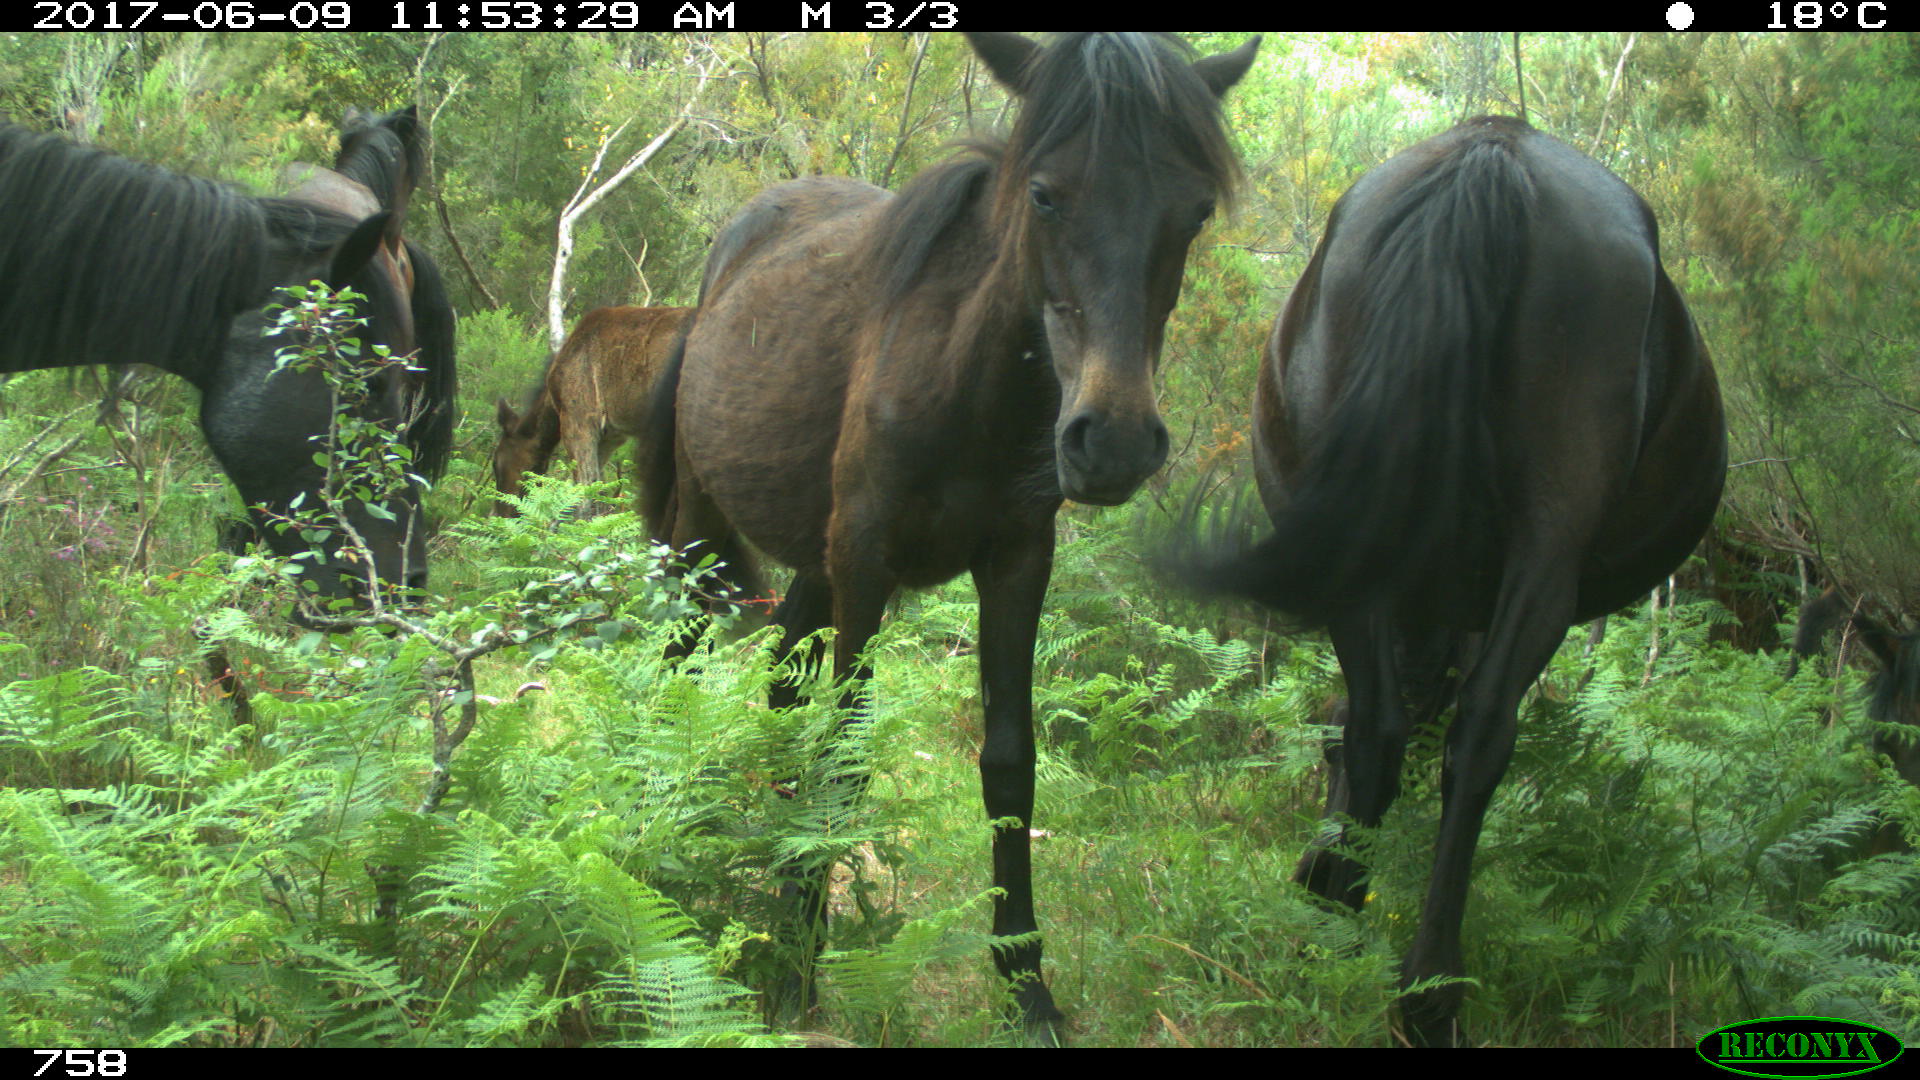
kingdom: Animalia
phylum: Chordata
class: Mammalia
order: Perissodactyla
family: Equidae
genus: Equus
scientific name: Equus caballus
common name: Horse
